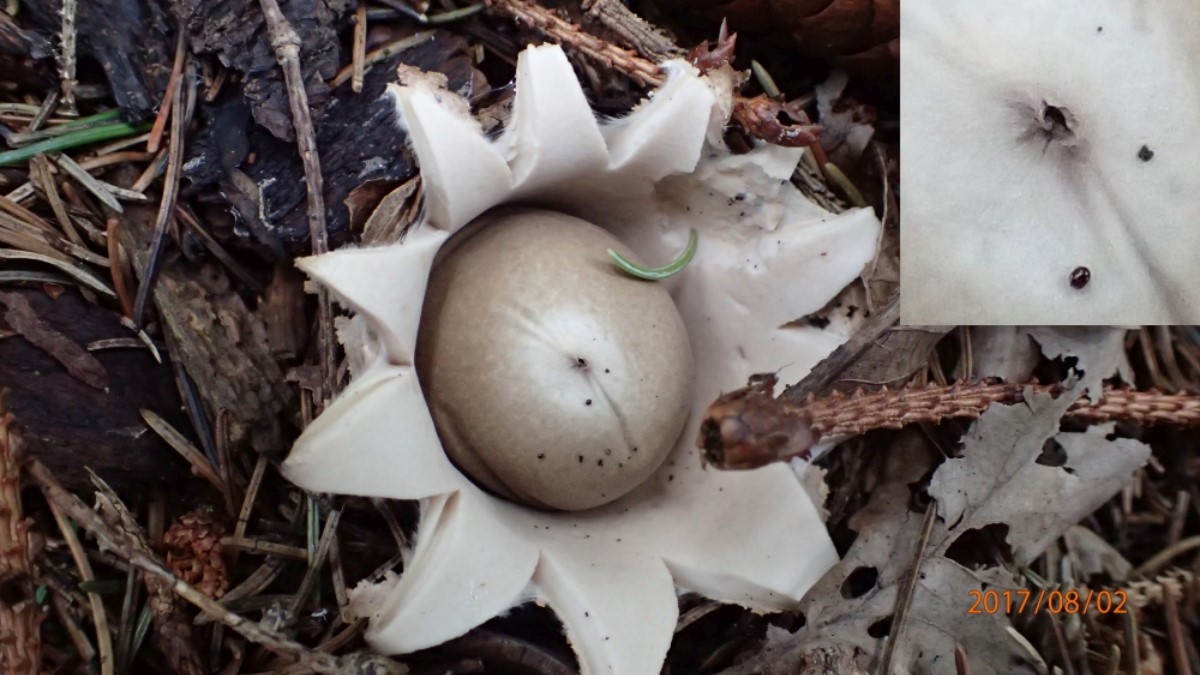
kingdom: Fungi
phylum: Basidiomycota
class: Agaricomycetes
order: Geastrales
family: Geastraceae
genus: Geastrum
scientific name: Geastrum fimbriatum
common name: frynset stjernebold
